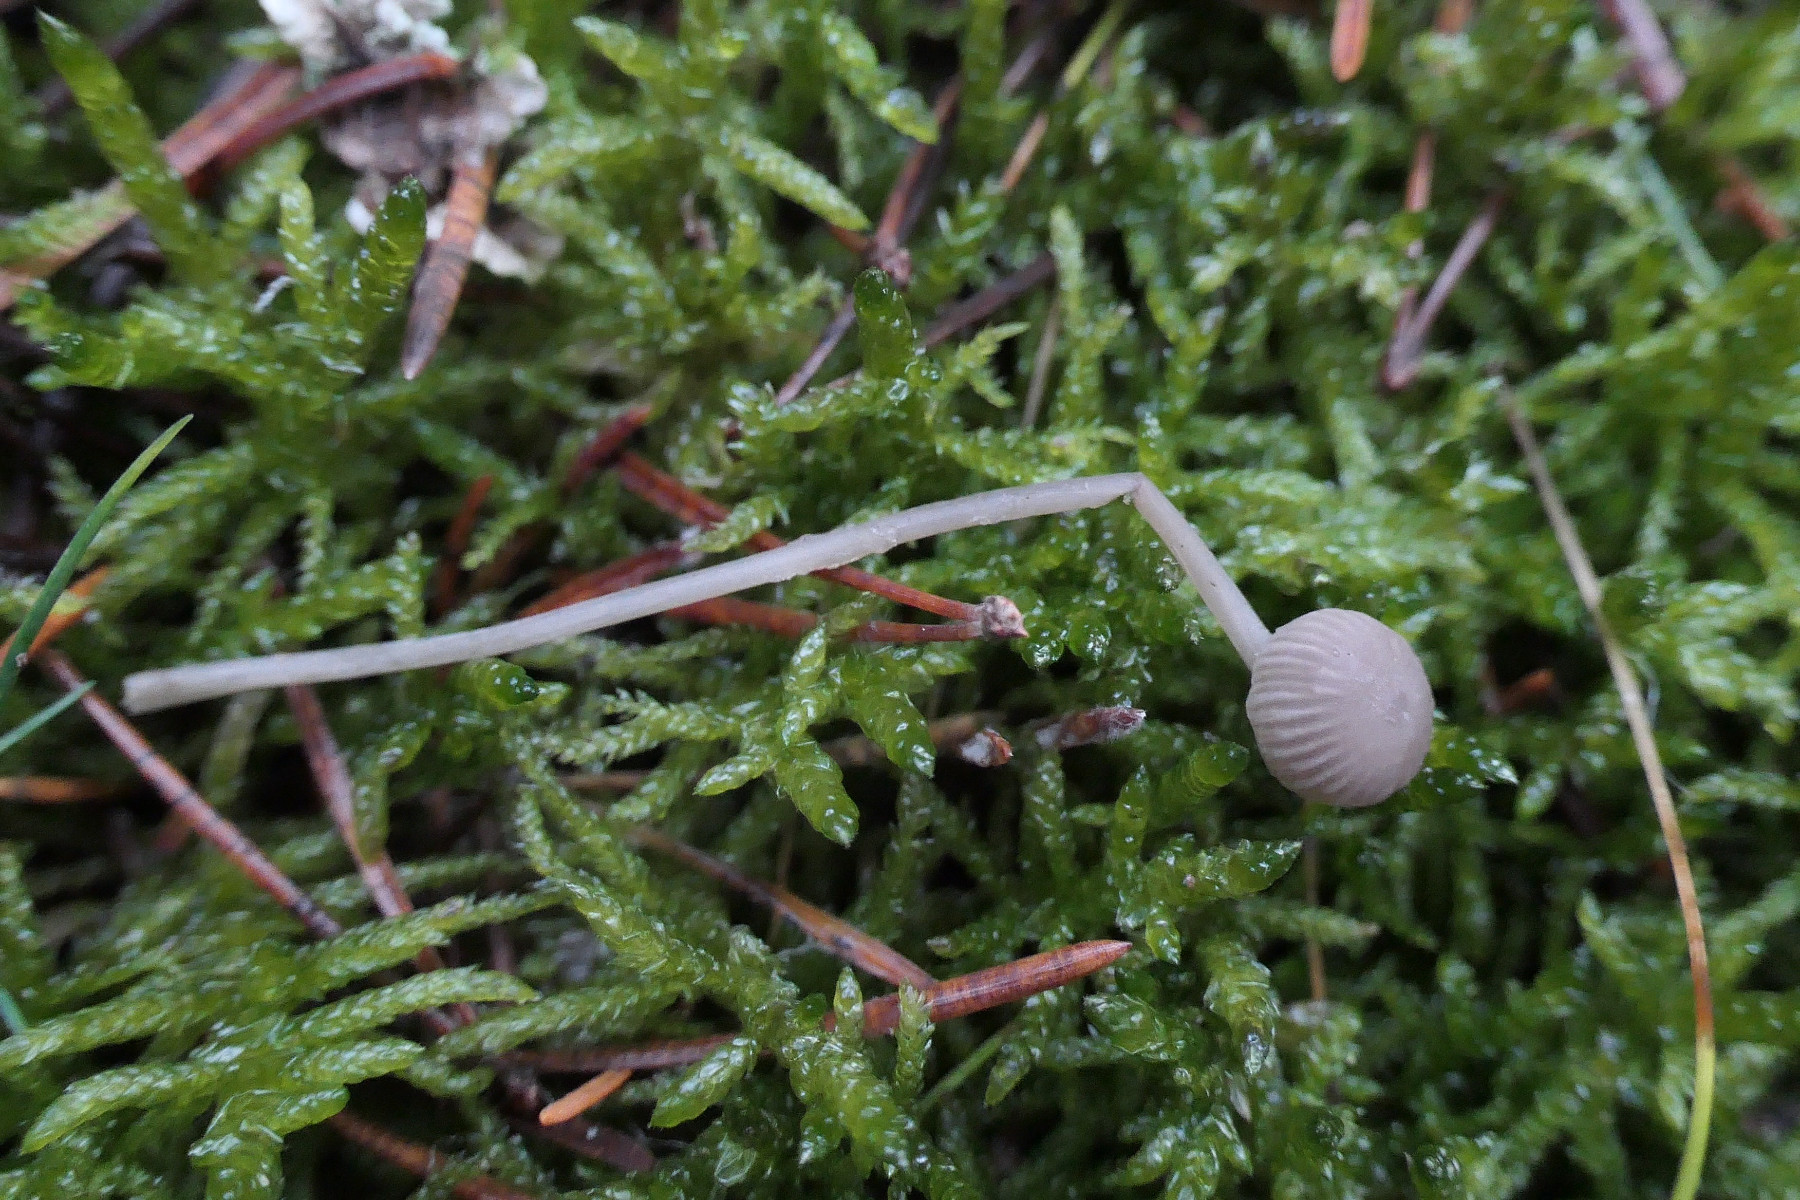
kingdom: Fungi
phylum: Basidiomycota
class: Agaricomycetes
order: Agaricales
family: Mycenaceae
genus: Mycena
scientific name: Mycena cinerella
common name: mel-huesvamp
